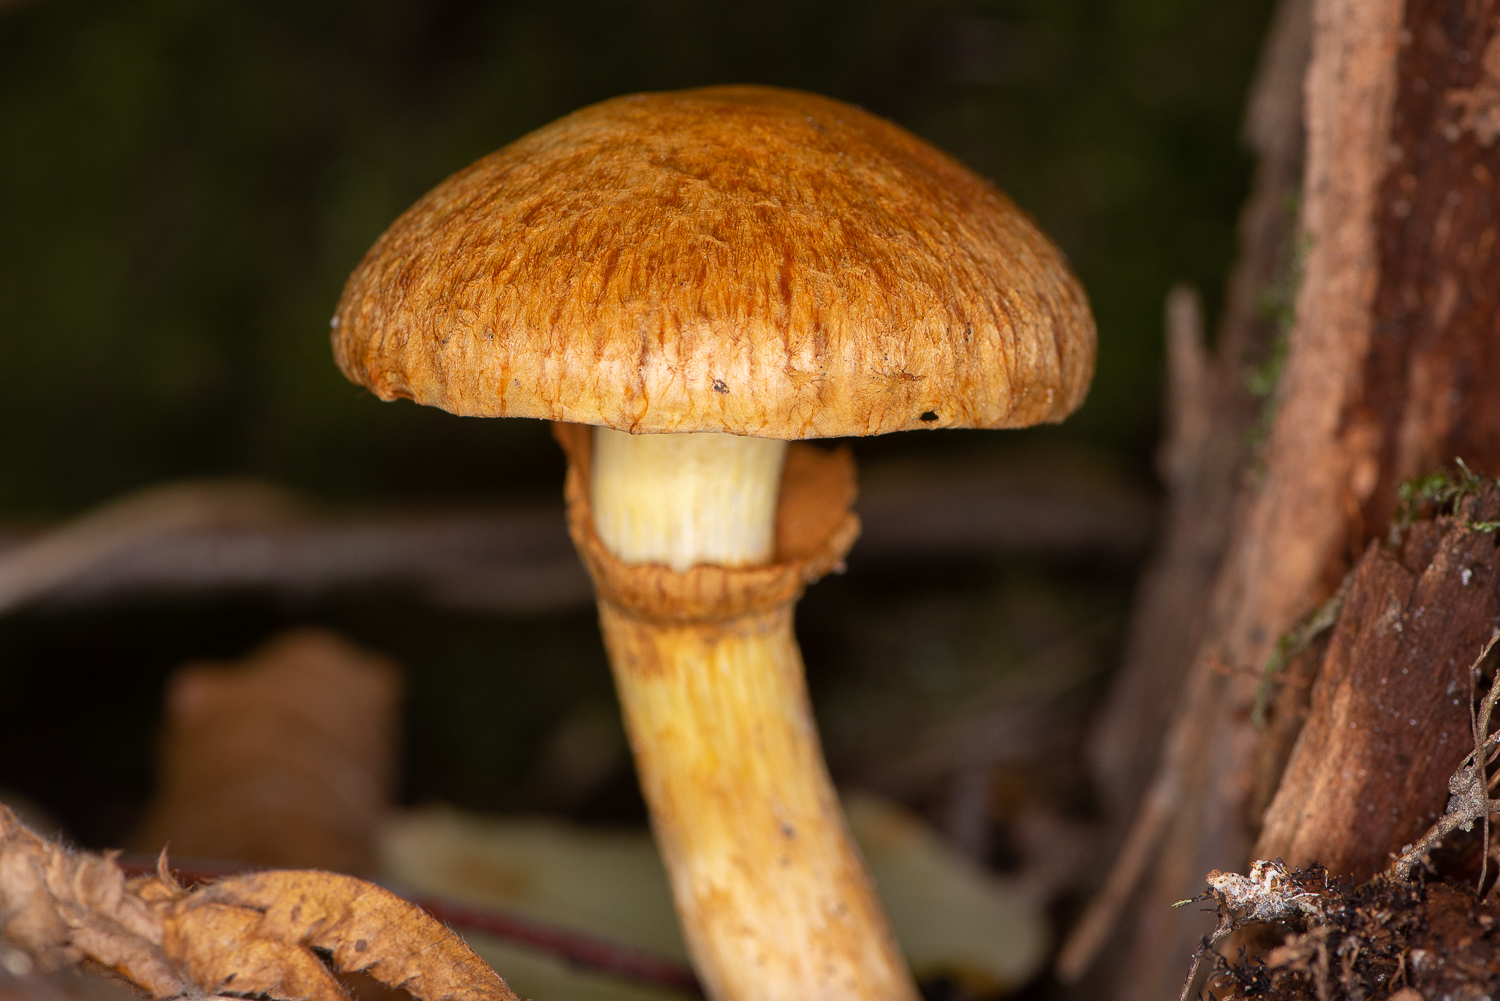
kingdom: Fungi
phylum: Basidiomycota
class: Agaricomycetes
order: Agaricales
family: Hymenogastraceae
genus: Gymnopilus
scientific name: Gymnopilus spectabilis
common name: fibret flammehat
